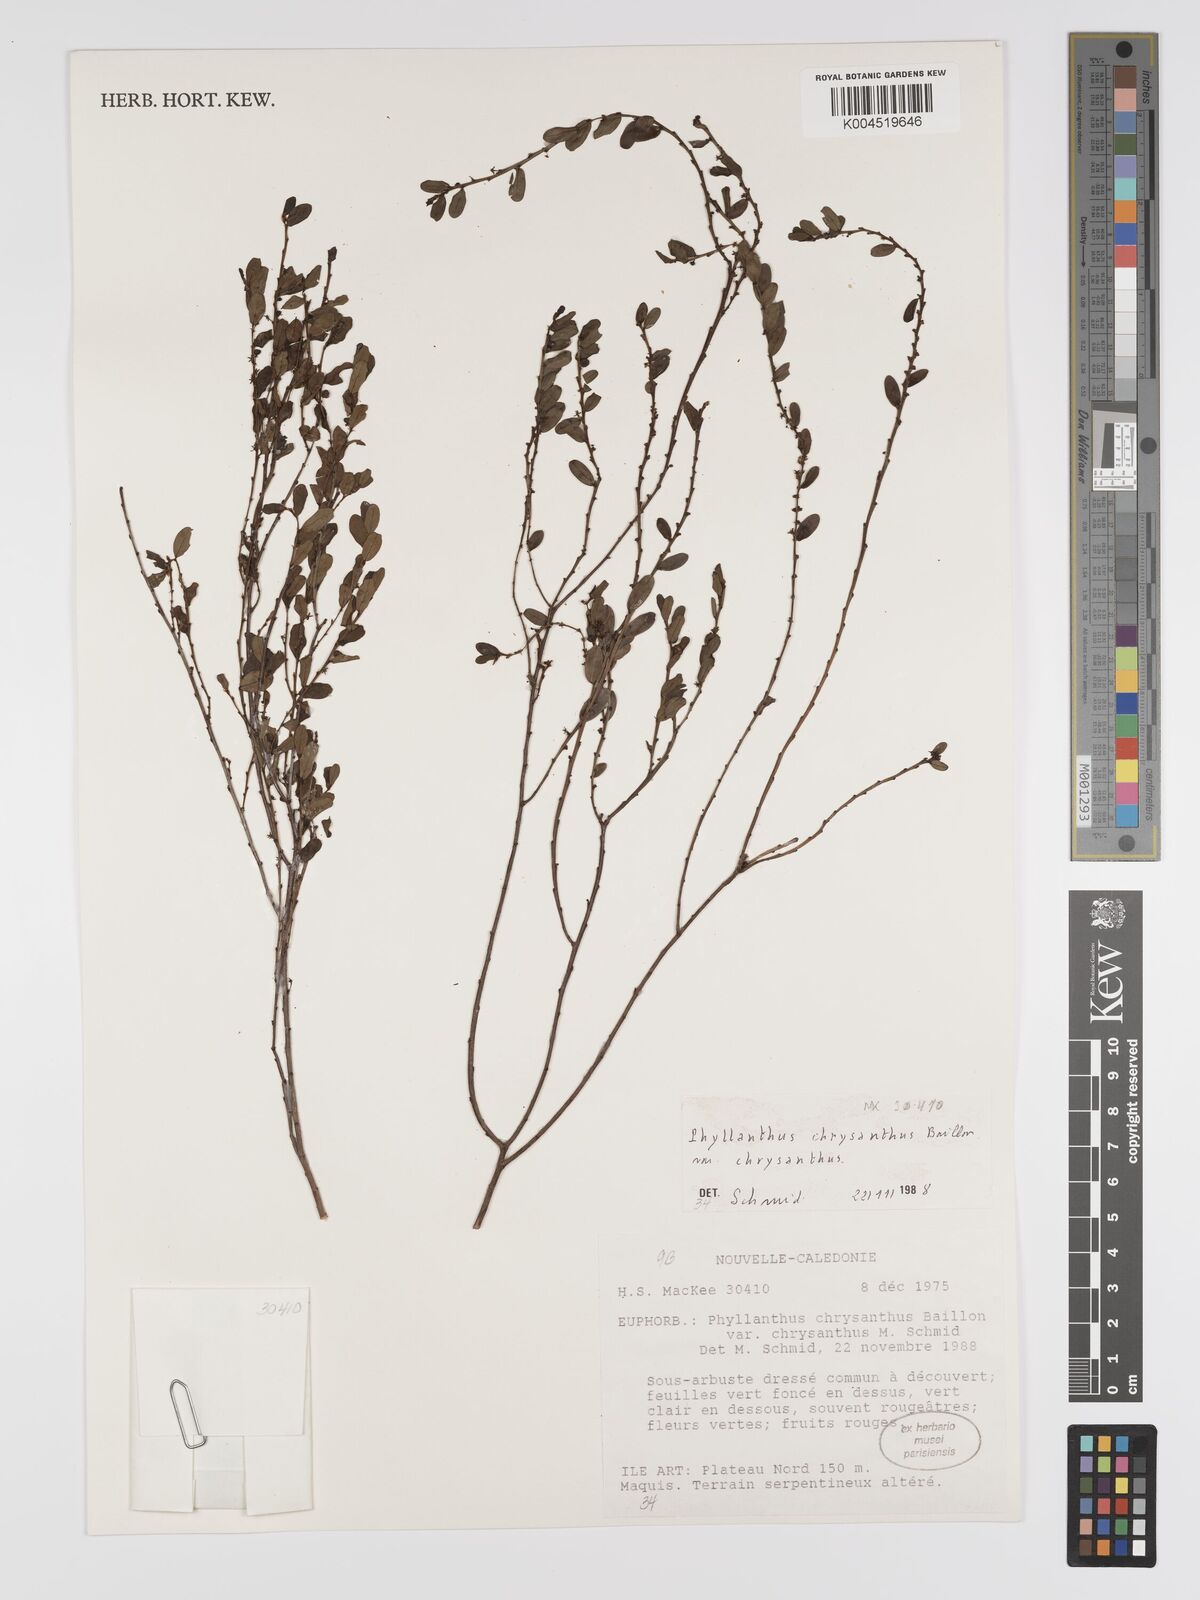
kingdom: Plantae
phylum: Tracheophyta
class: Magnoliopsida
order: Malpighiales
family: Phyllanthaceae
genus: Phyllanthus
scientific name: Phyllanthus chrysanthus
